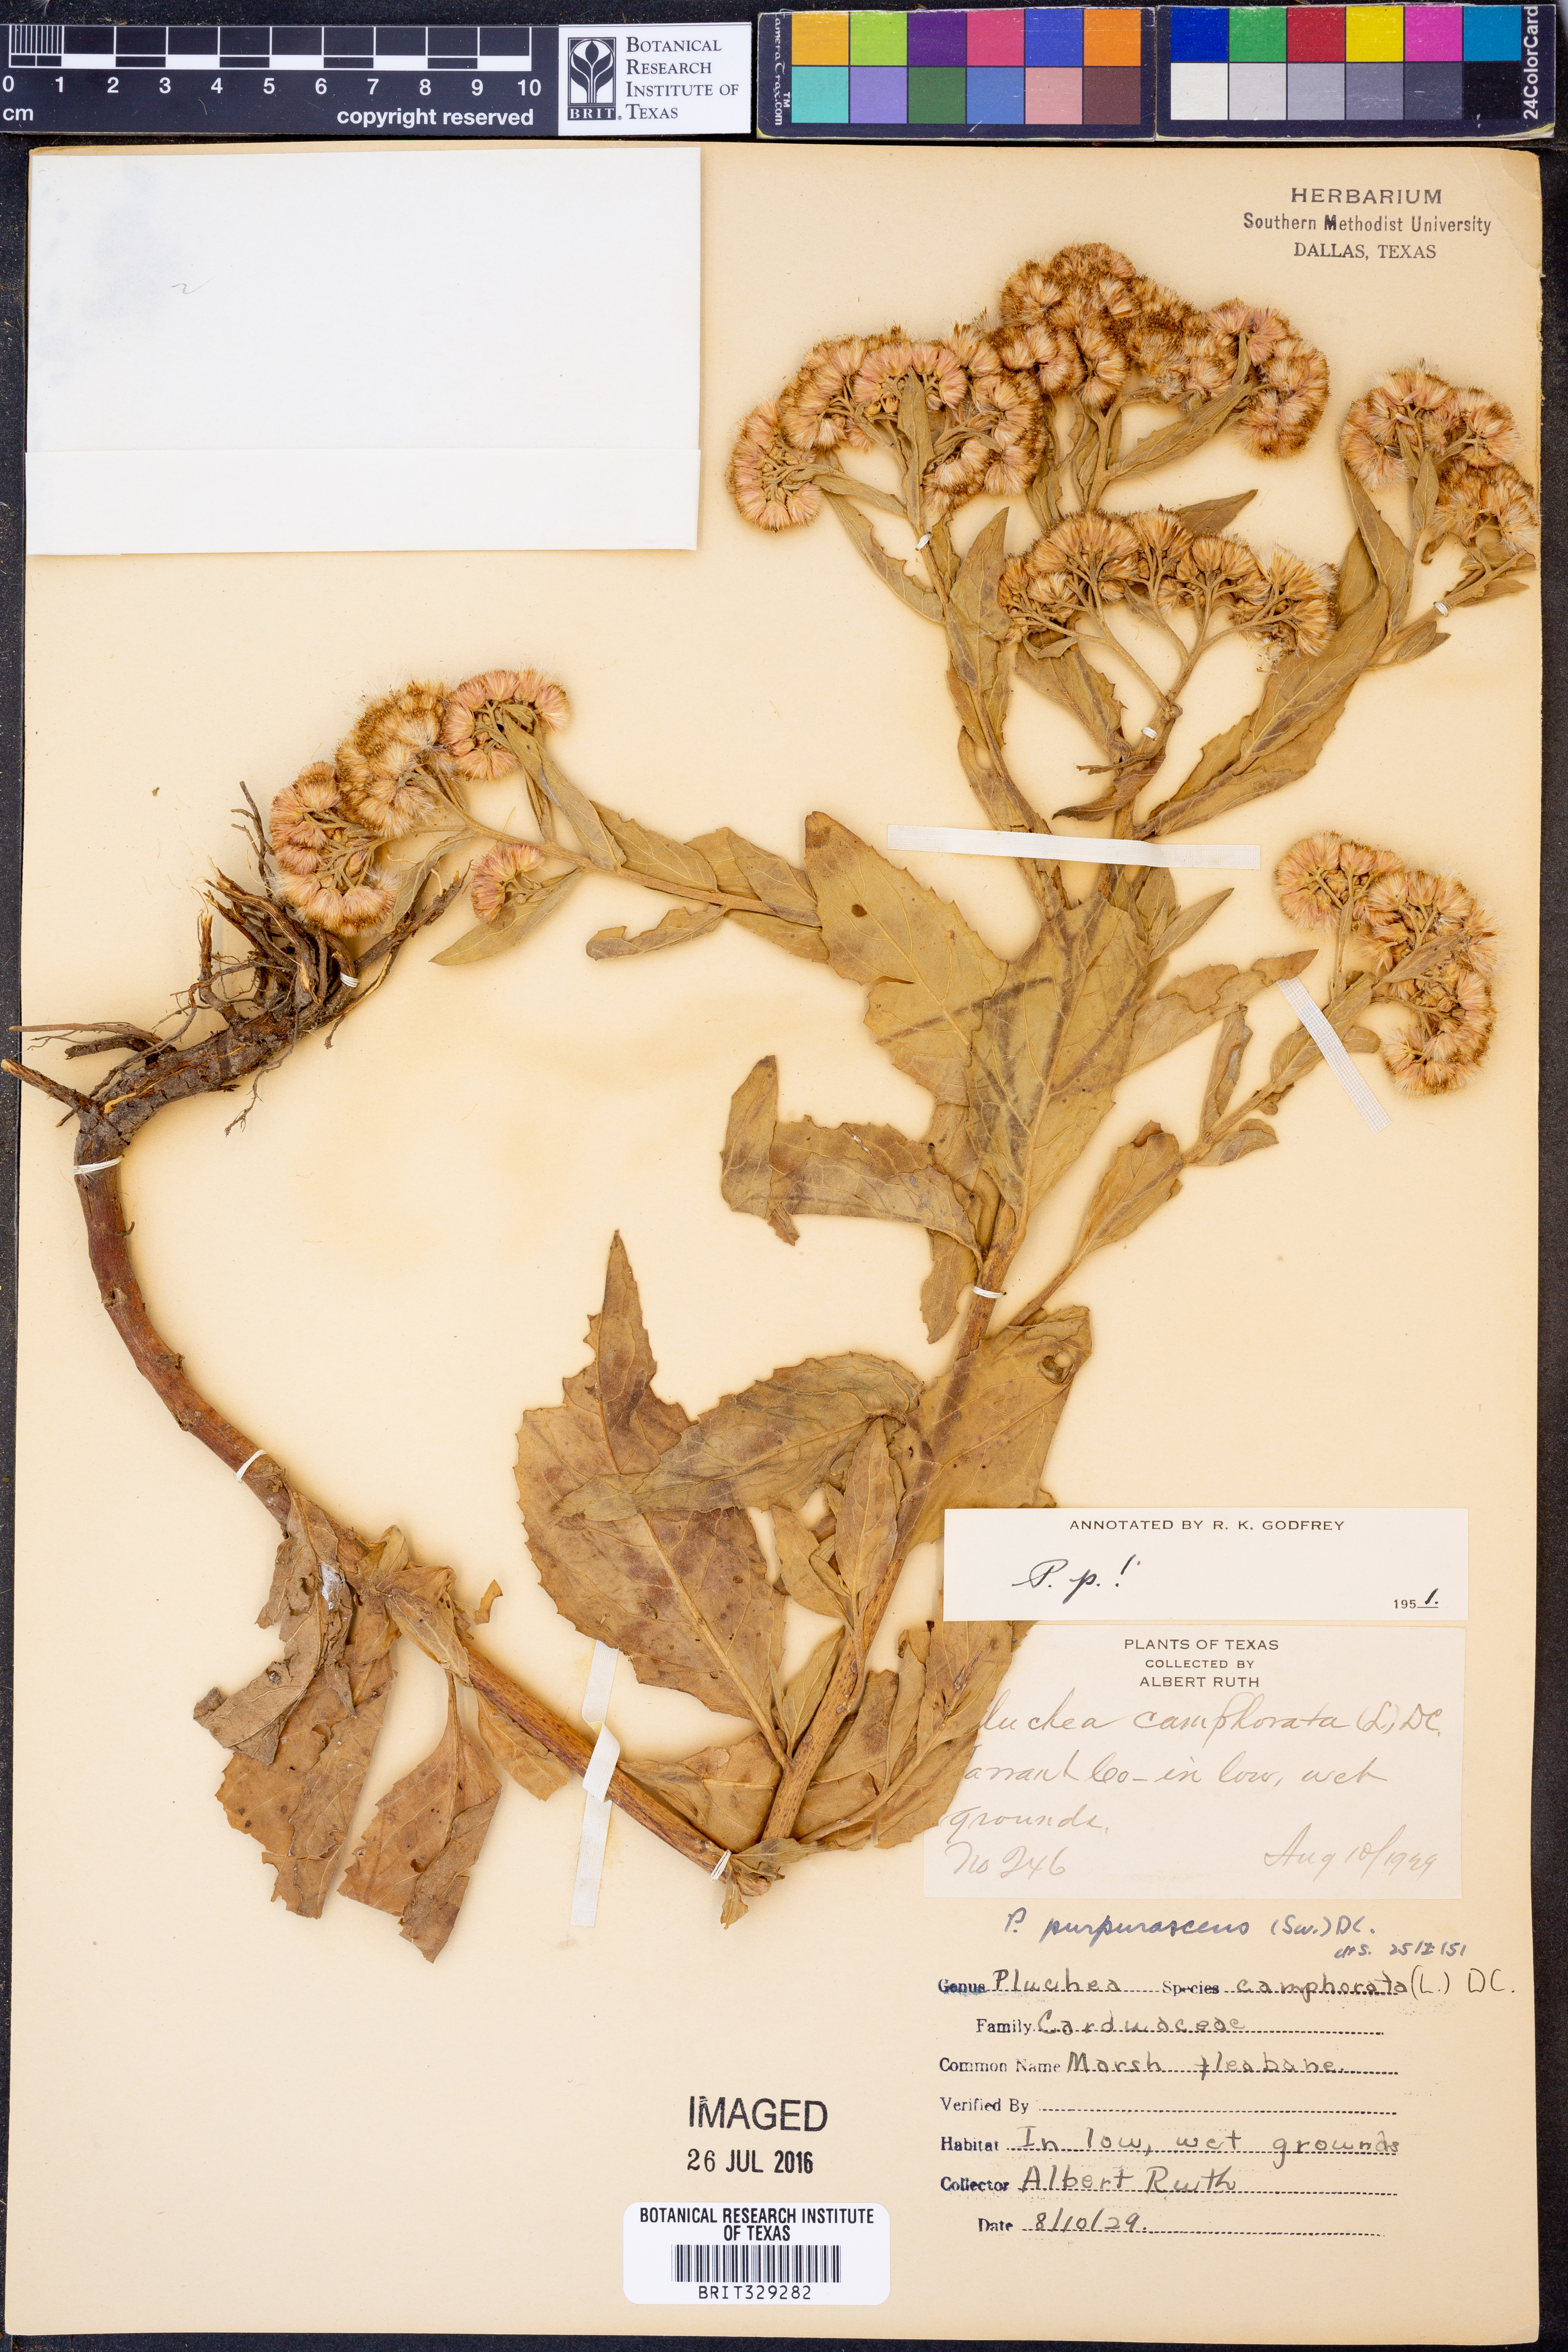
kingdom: Plantae
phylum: Tracheophyta
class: Magnoliopsida
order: Asterales
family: Asteraceae
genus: Pluchea
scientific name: Pluchea odorata
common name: Saltmarsh fleabane
